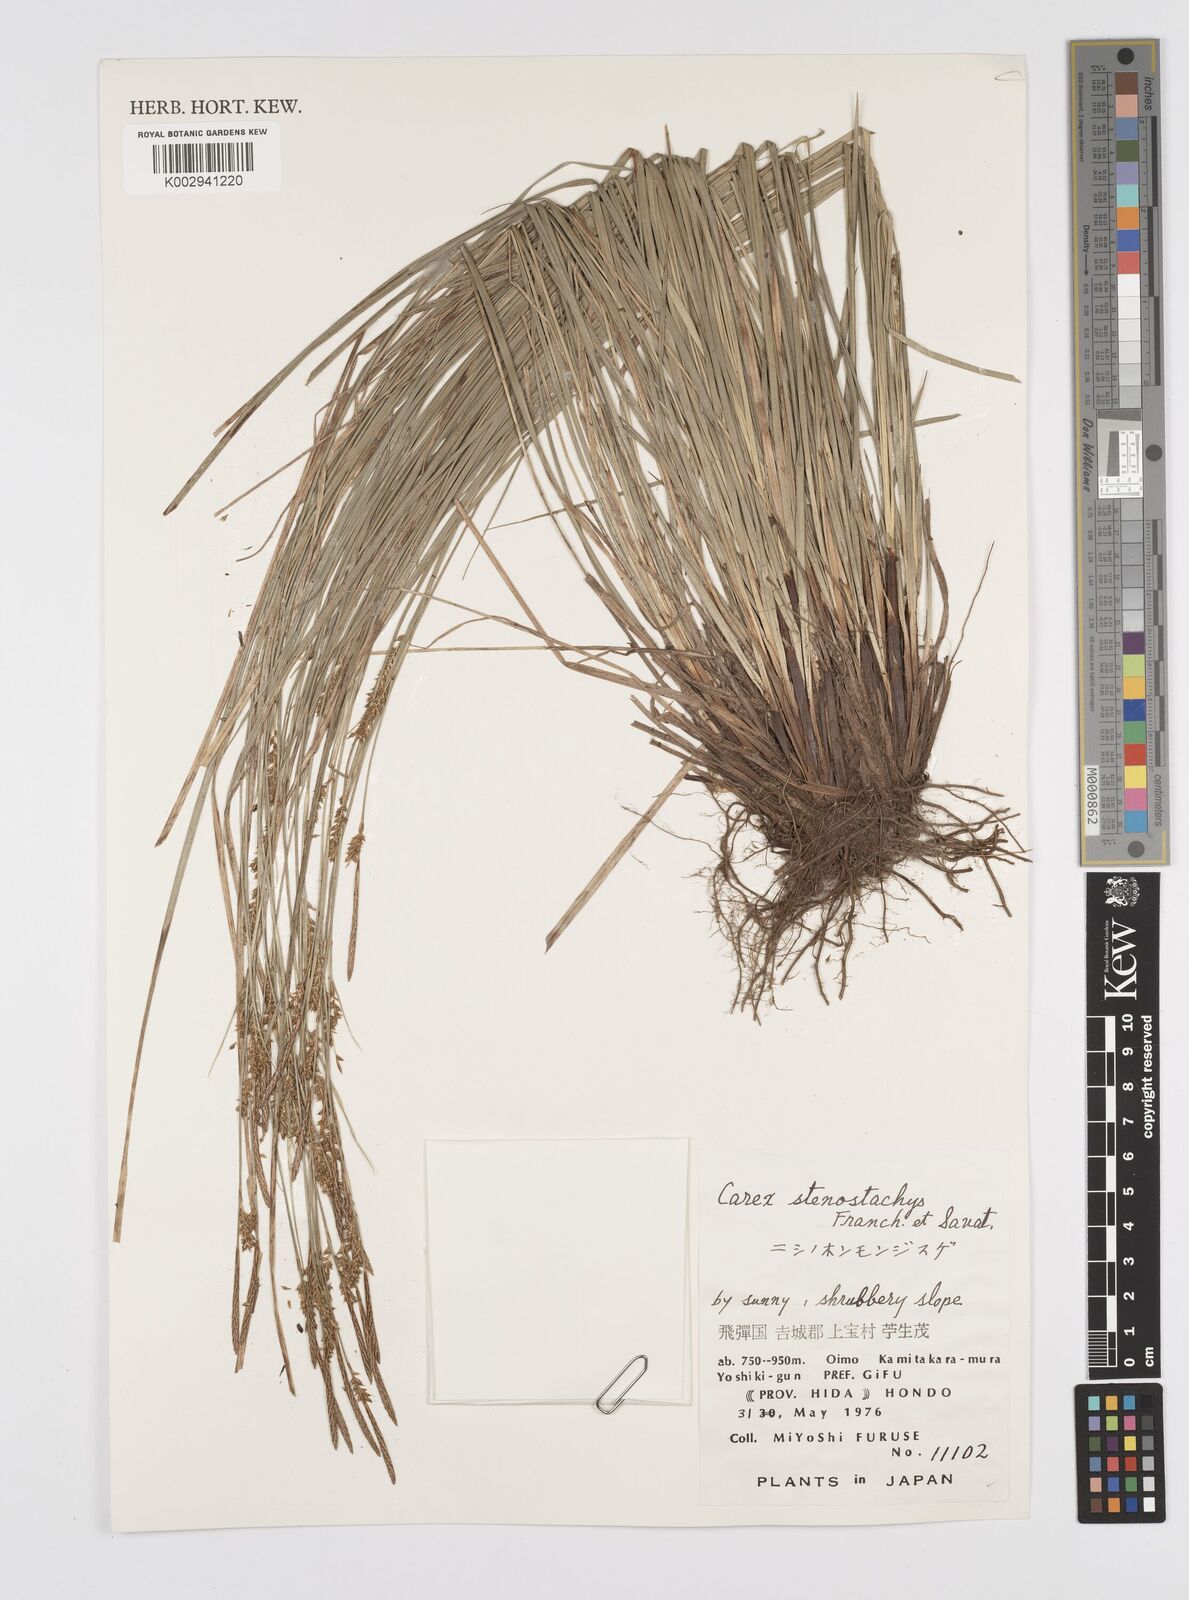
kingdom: Plantae
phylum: Tracheophyta
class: Liliopsida
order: Poales
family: Cyperaceae
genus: Carex
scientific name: Carex pisiformis
